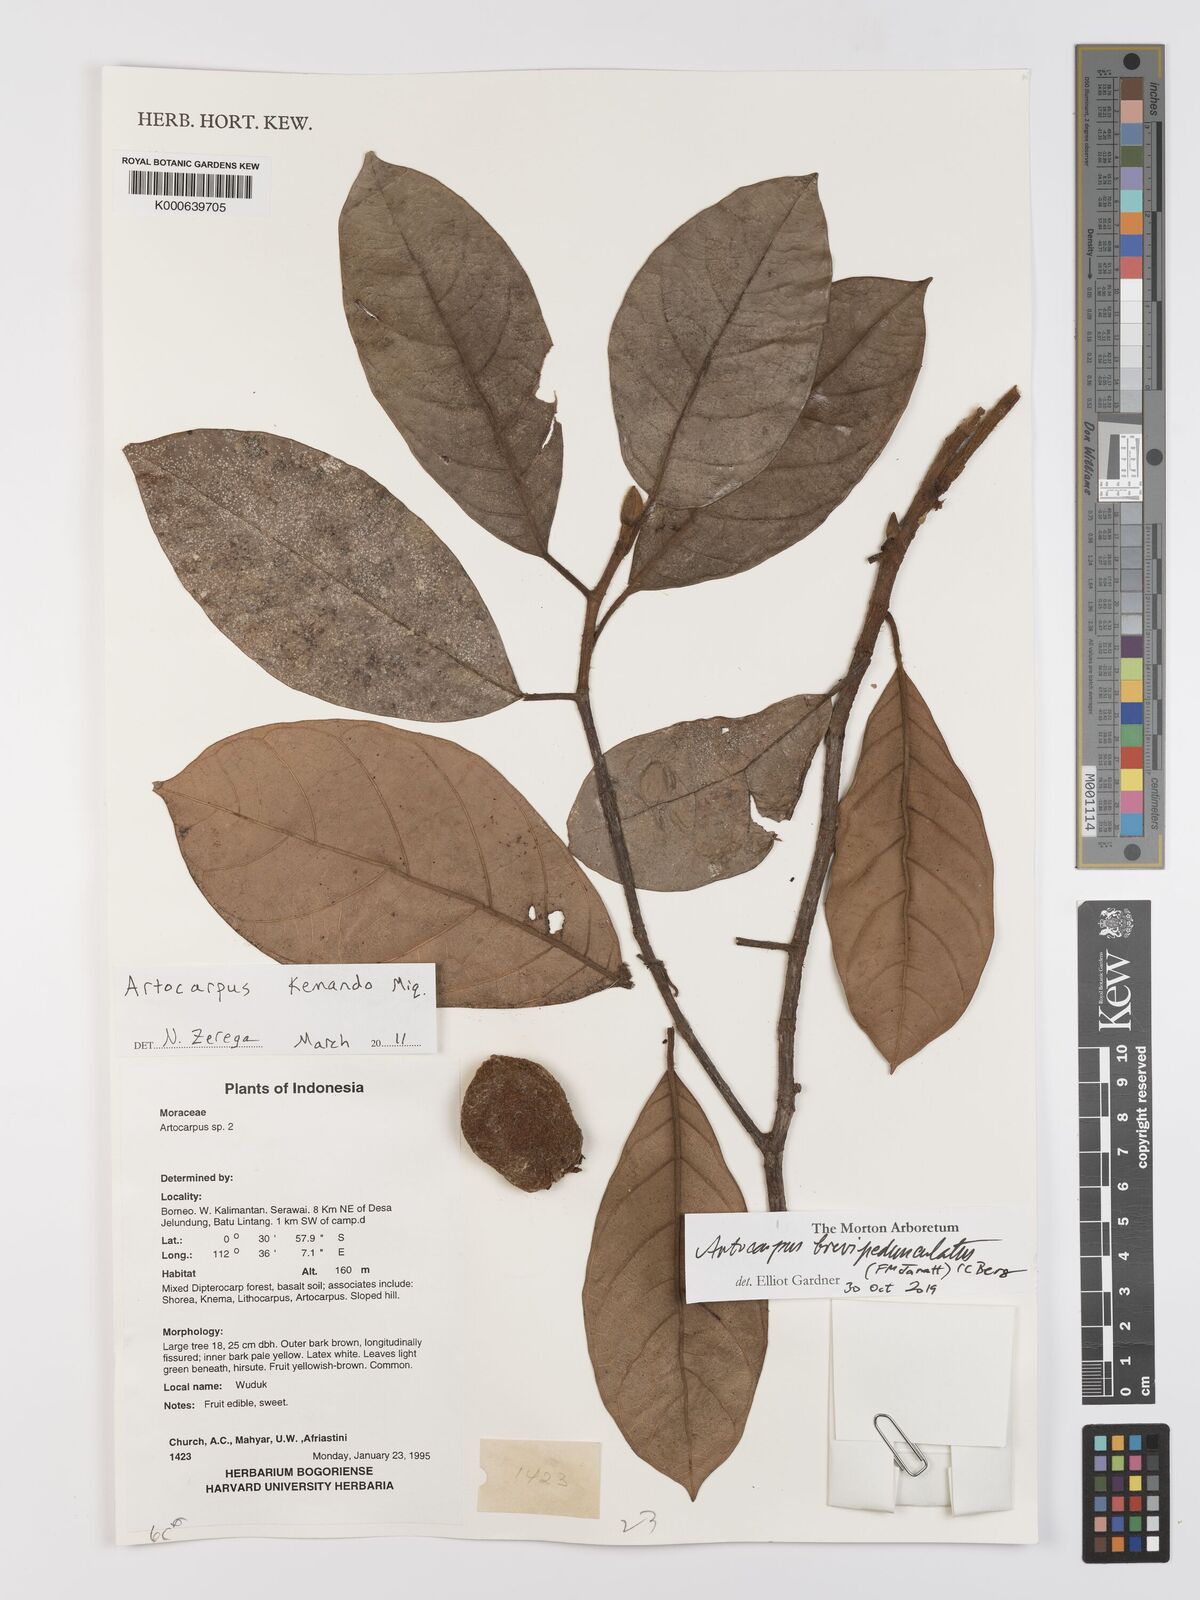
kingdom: Plantae
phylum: Tracheophyta
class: Magnoliopsida
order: Rosales
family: Moraceae
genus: Artocarpus
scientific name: Artocarpus kemando
